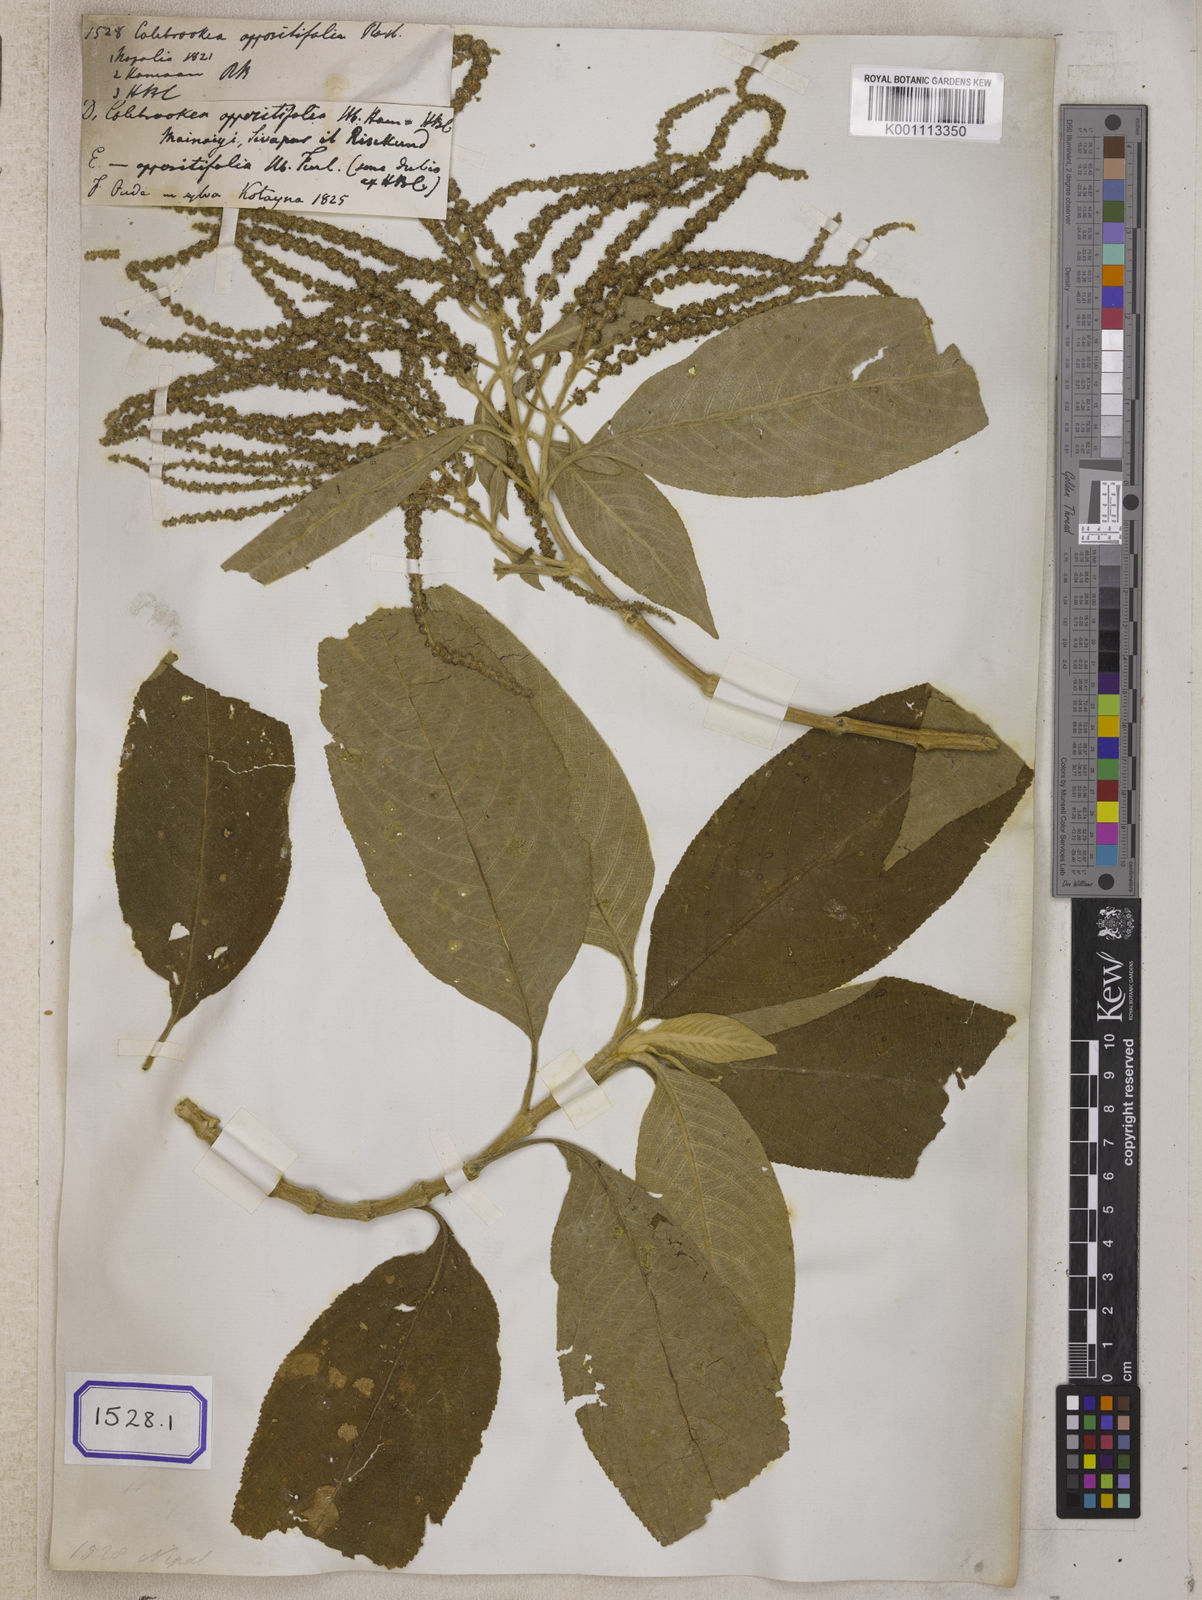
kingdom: Plantae
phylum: Tracheophyta
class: Magnoliopsida
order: Lamiales
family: Lamiaceae
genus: Colebrookea
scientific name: Colebrookea
